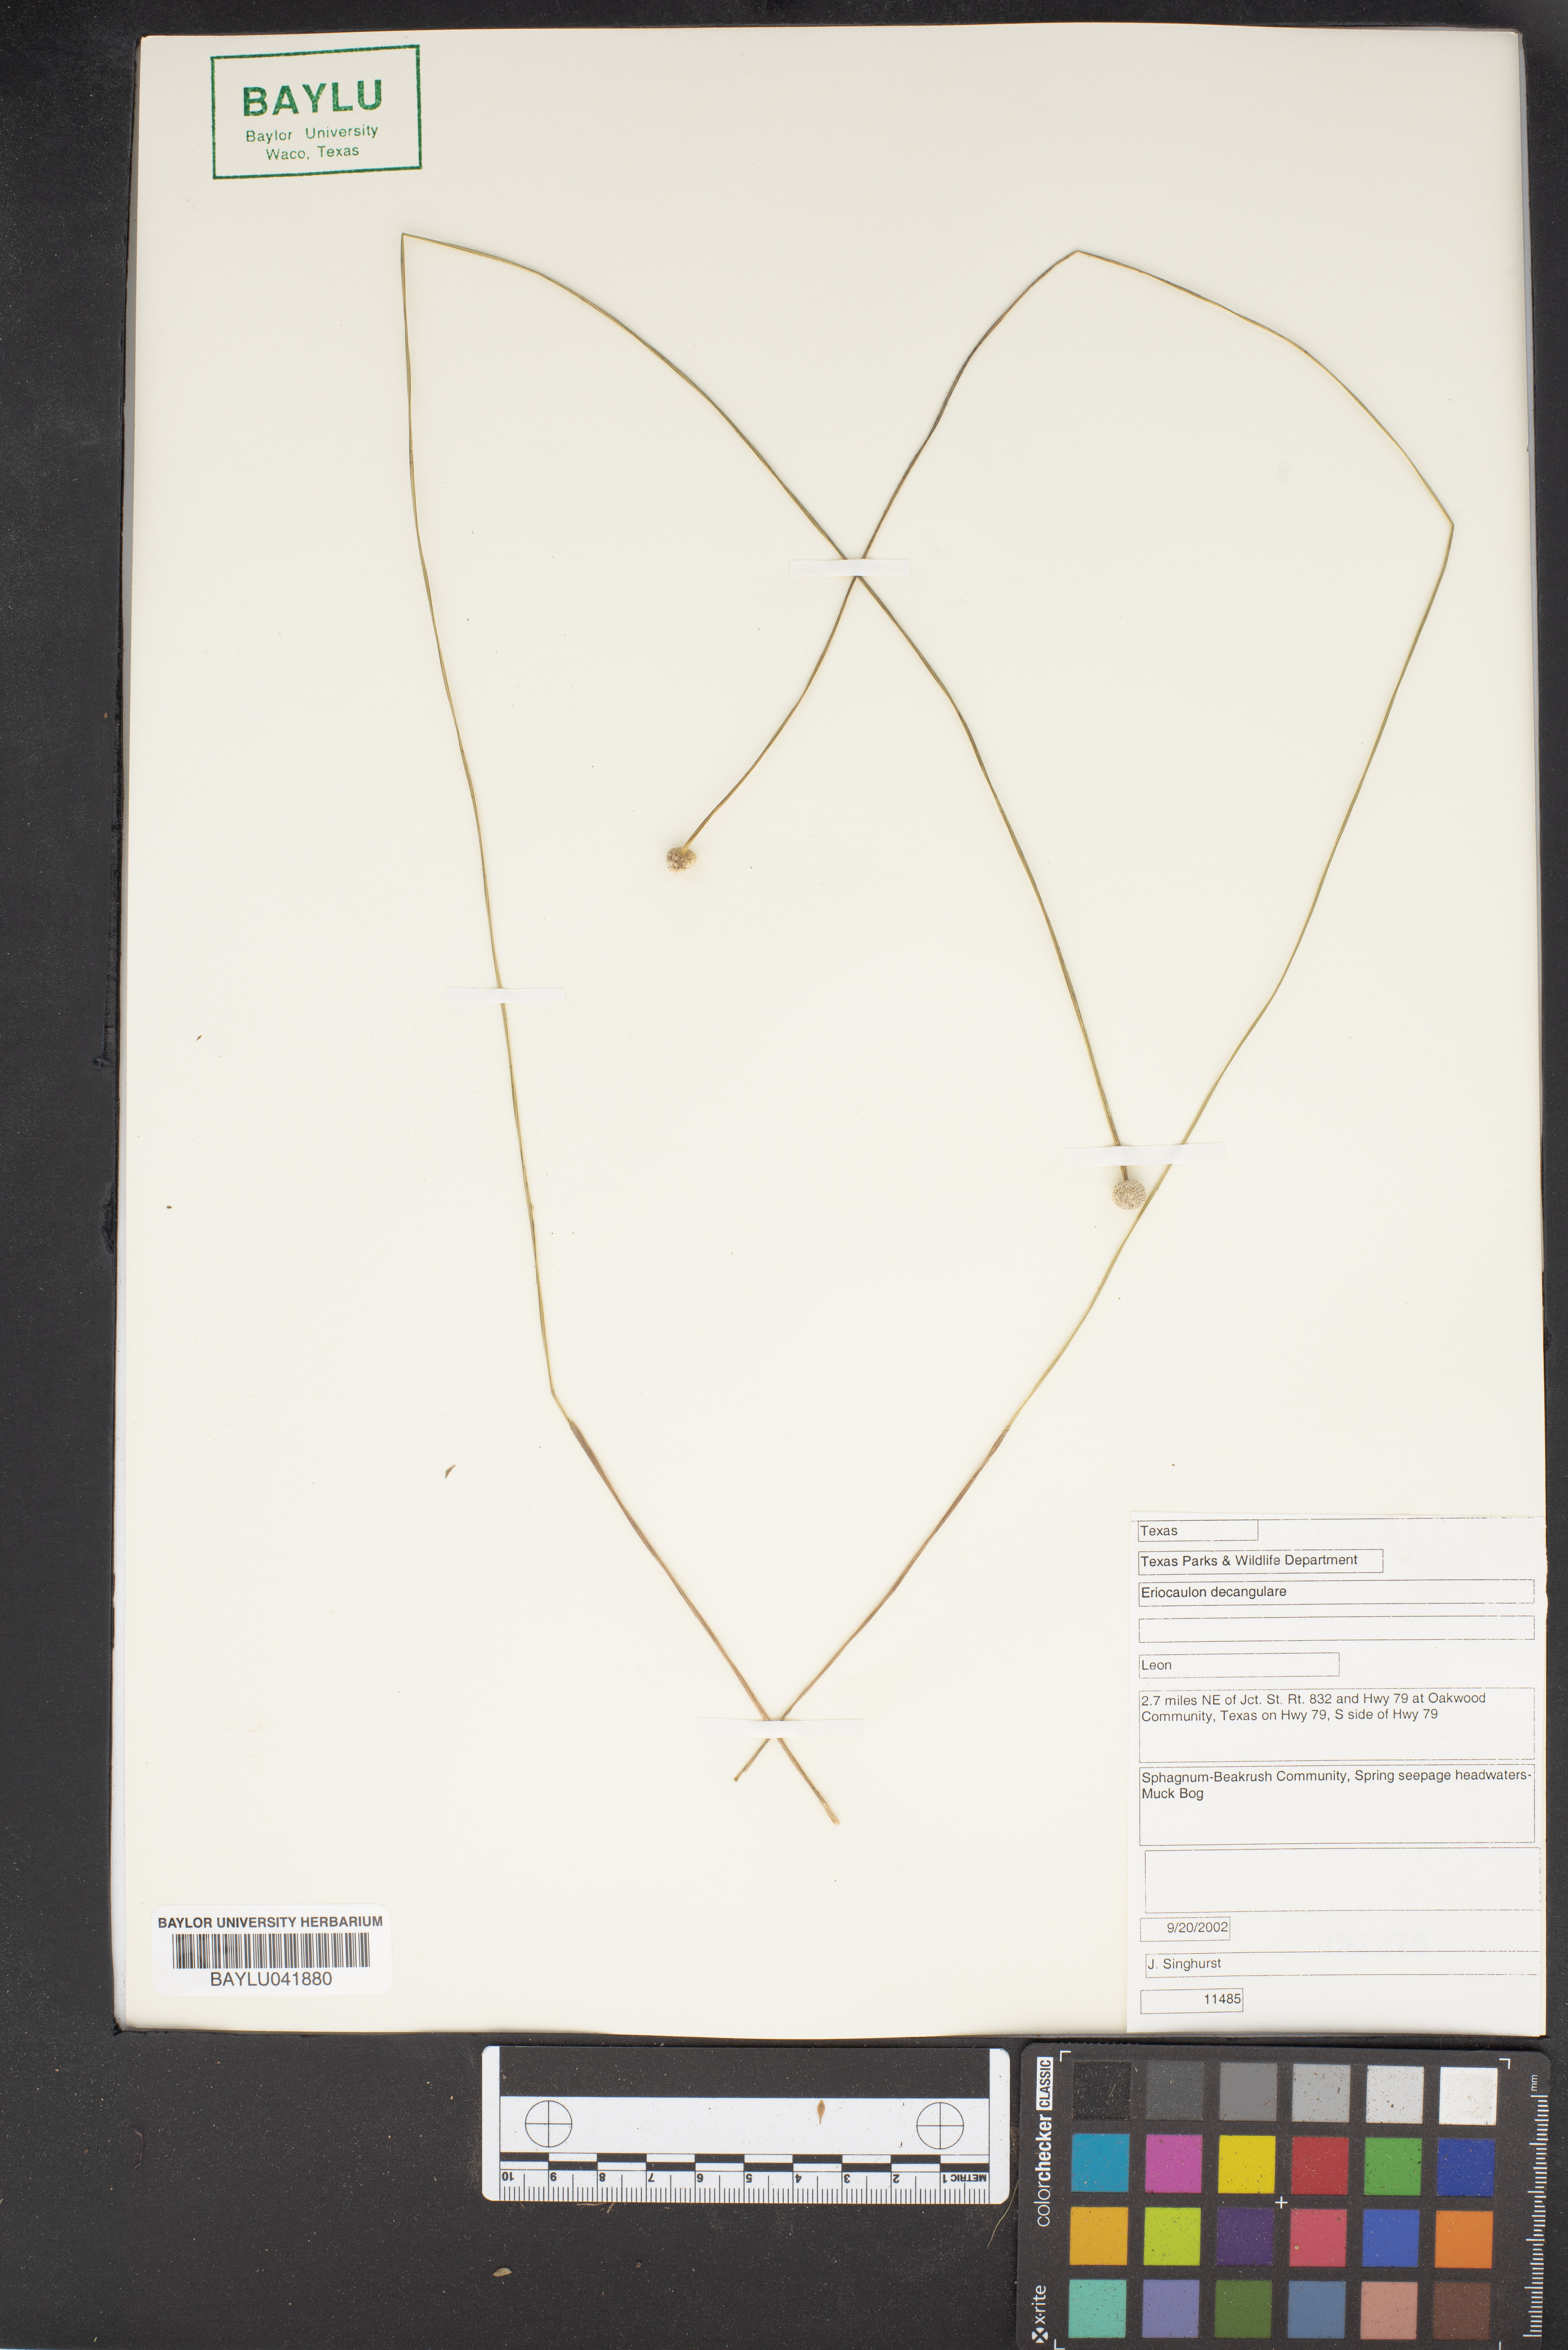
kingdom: Plantae
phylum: Tracheophyta
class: Liliopsida
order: Poales
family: Eriocaulaceae
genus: Eriocaulon
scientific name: Eriocaulon decangulare
